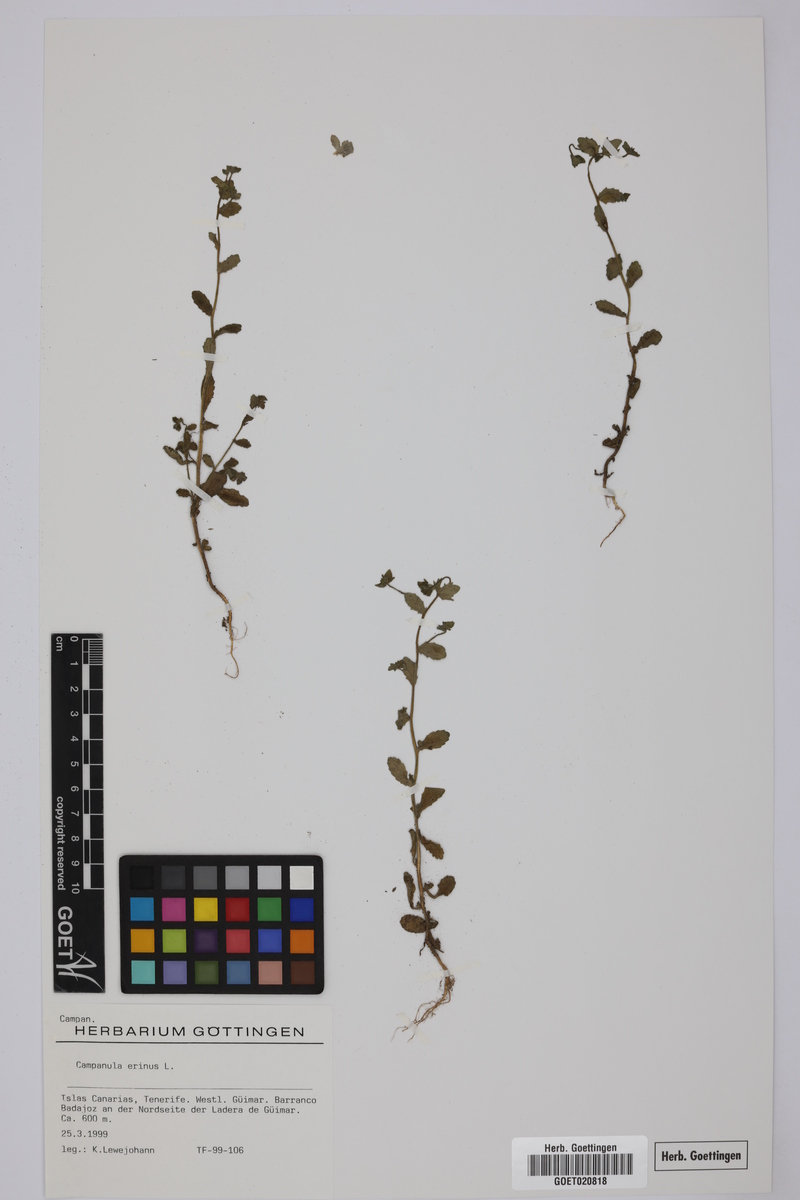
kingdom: Plantae
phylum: Tracheophyta
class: Magnoliopsida
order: Asterales
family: Campanulaceae
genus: Campanula
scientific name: Campanula erinus
